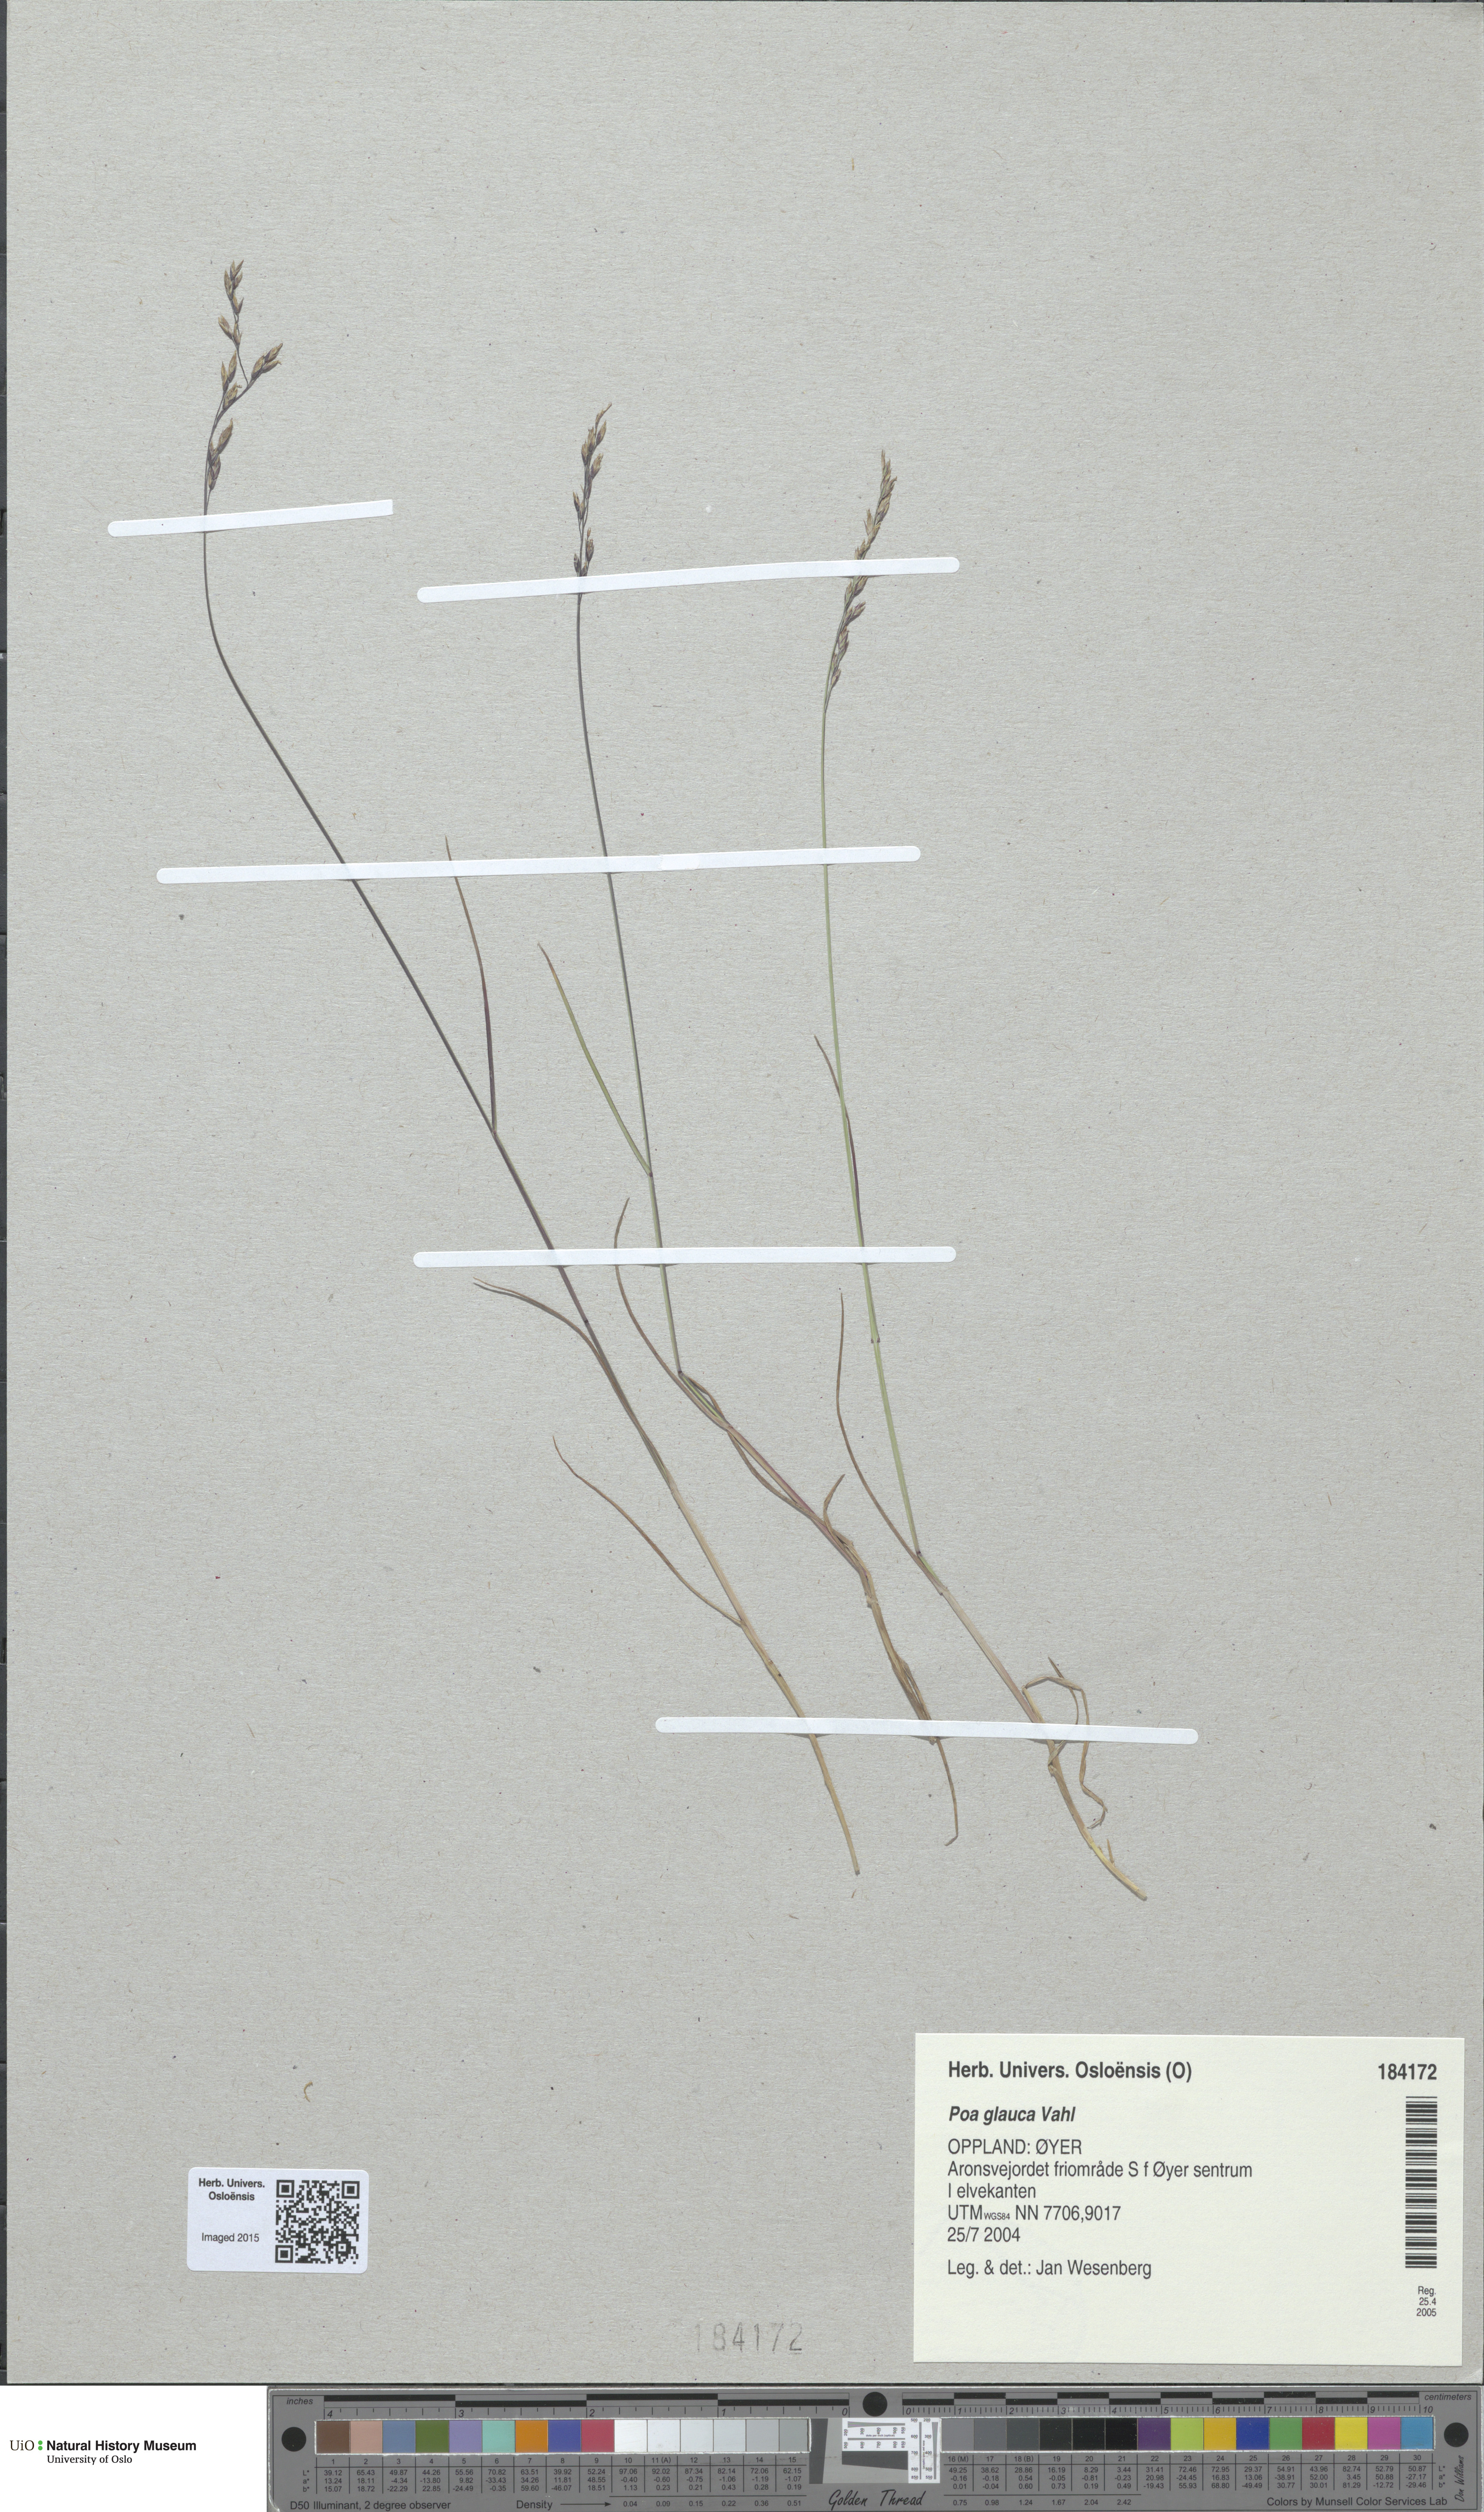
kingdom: Plantae
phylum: Tracheophyta
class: Liliopsida
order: Poales
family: Poaceae
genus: Poa
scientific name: Poa glauca
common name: Glaucous bluegrass
